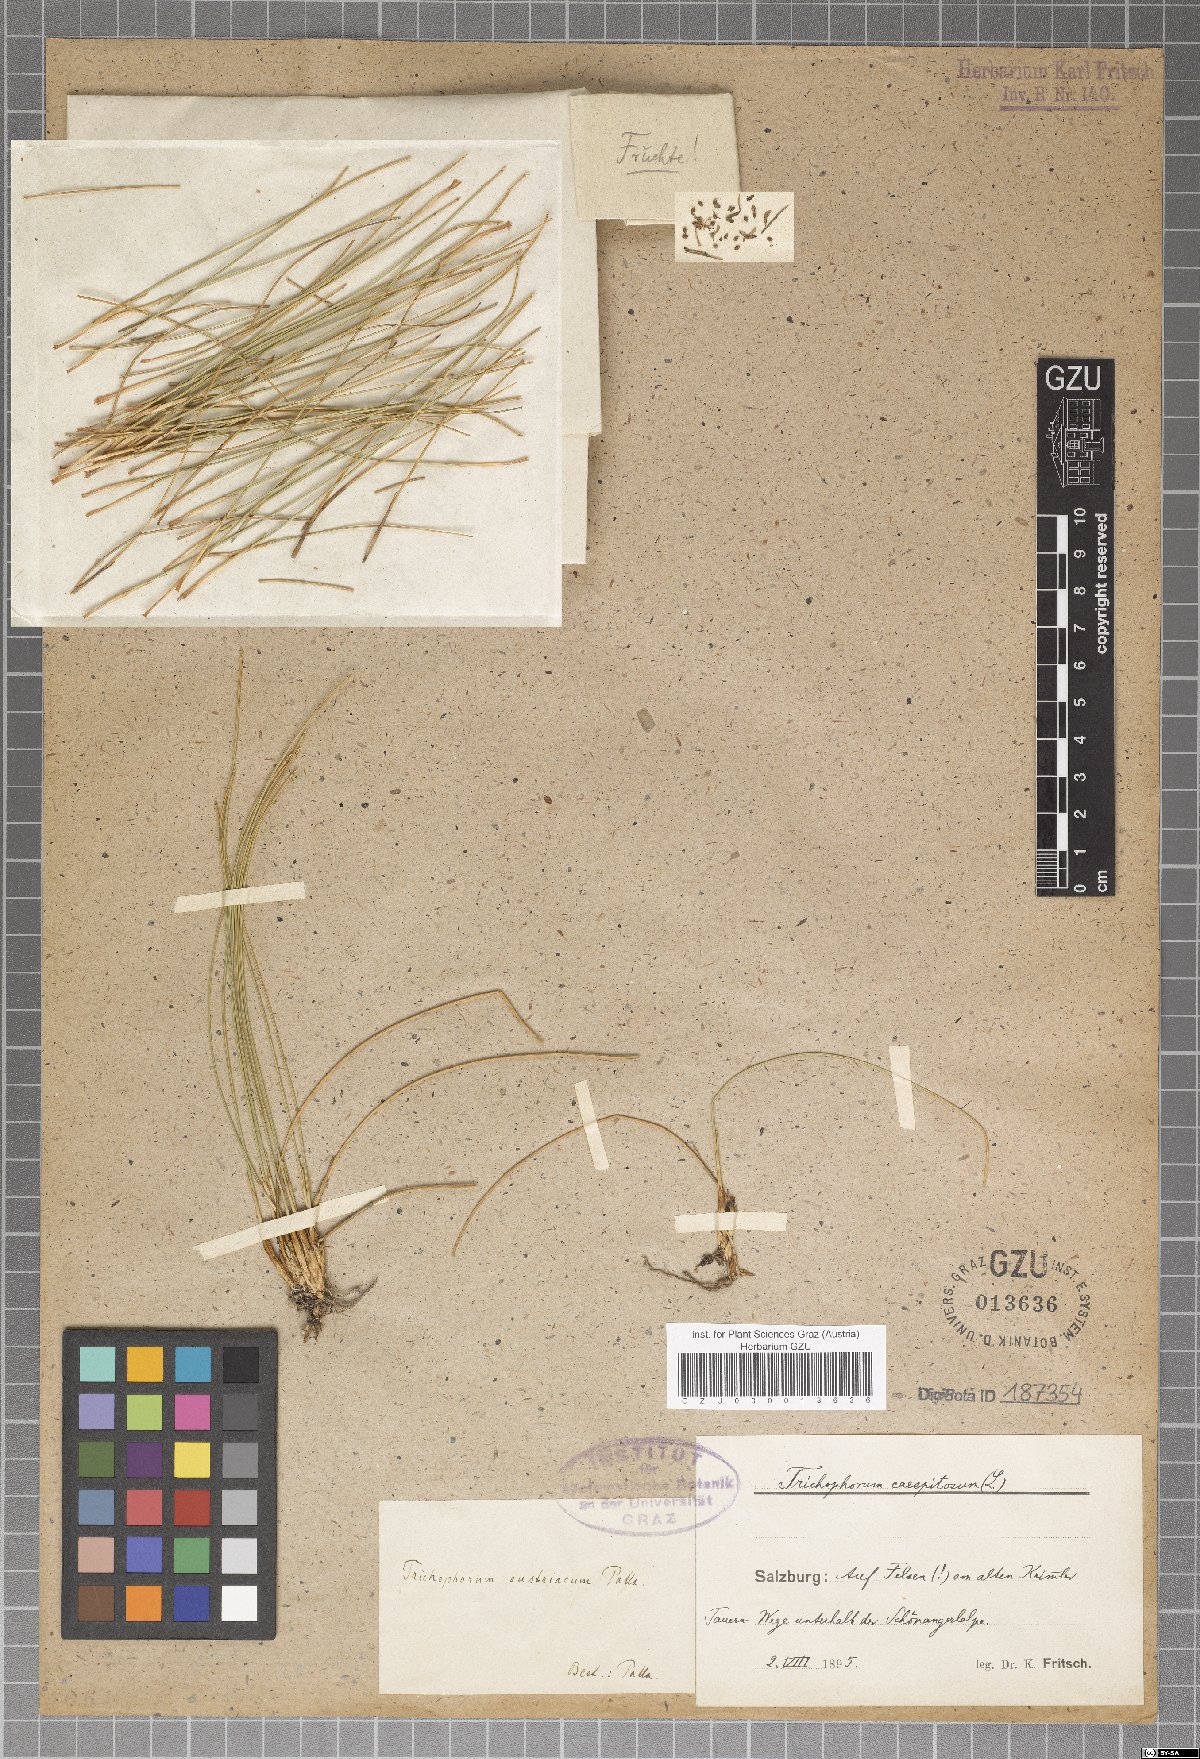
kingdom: Plantae
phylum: Tracheophyta
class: Liliopsida
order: Poales
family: Cyperaceae
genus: Trichophorum
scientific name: Trichophorum cespitosum
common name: Cespitose bulrush
